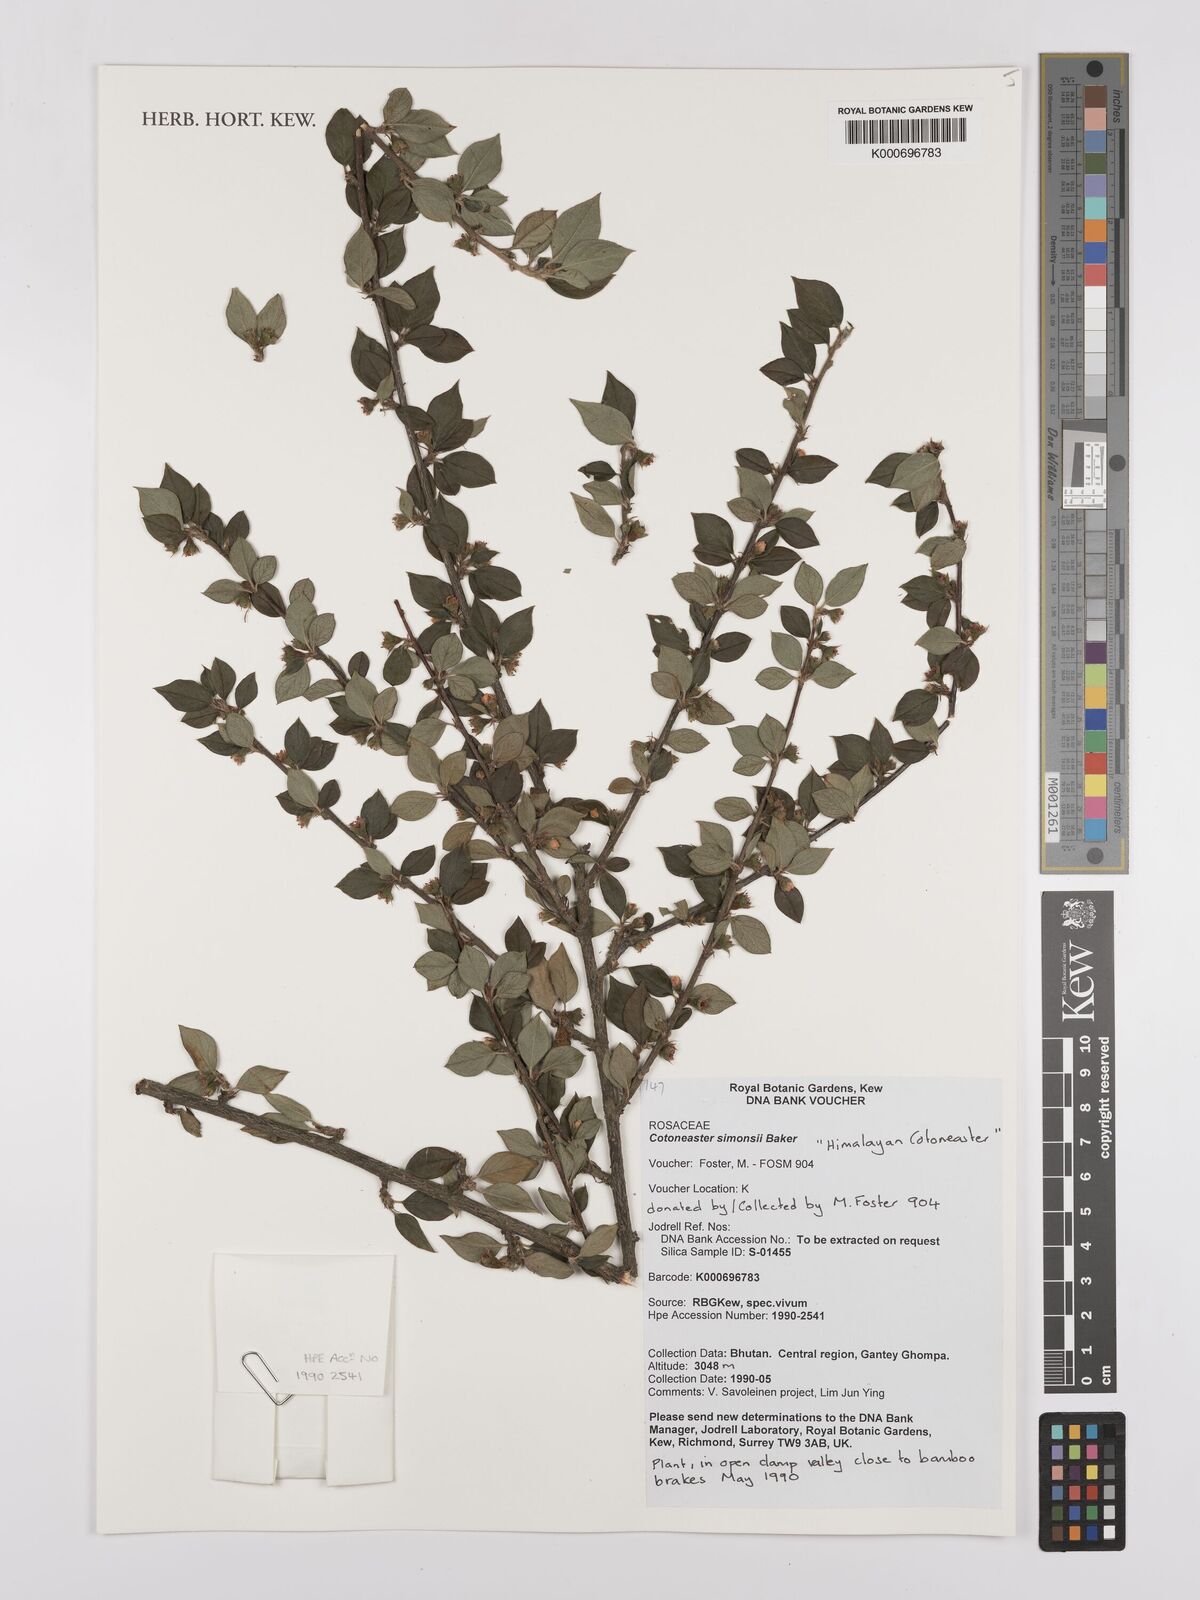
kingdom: Plantae
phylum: Tracheophyta
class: Magnoliopsida
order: Rosales
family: Rosaceae
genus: Cotoneaster
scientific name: Cotoneaster simonsii
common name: Himalayan cotoneaster
